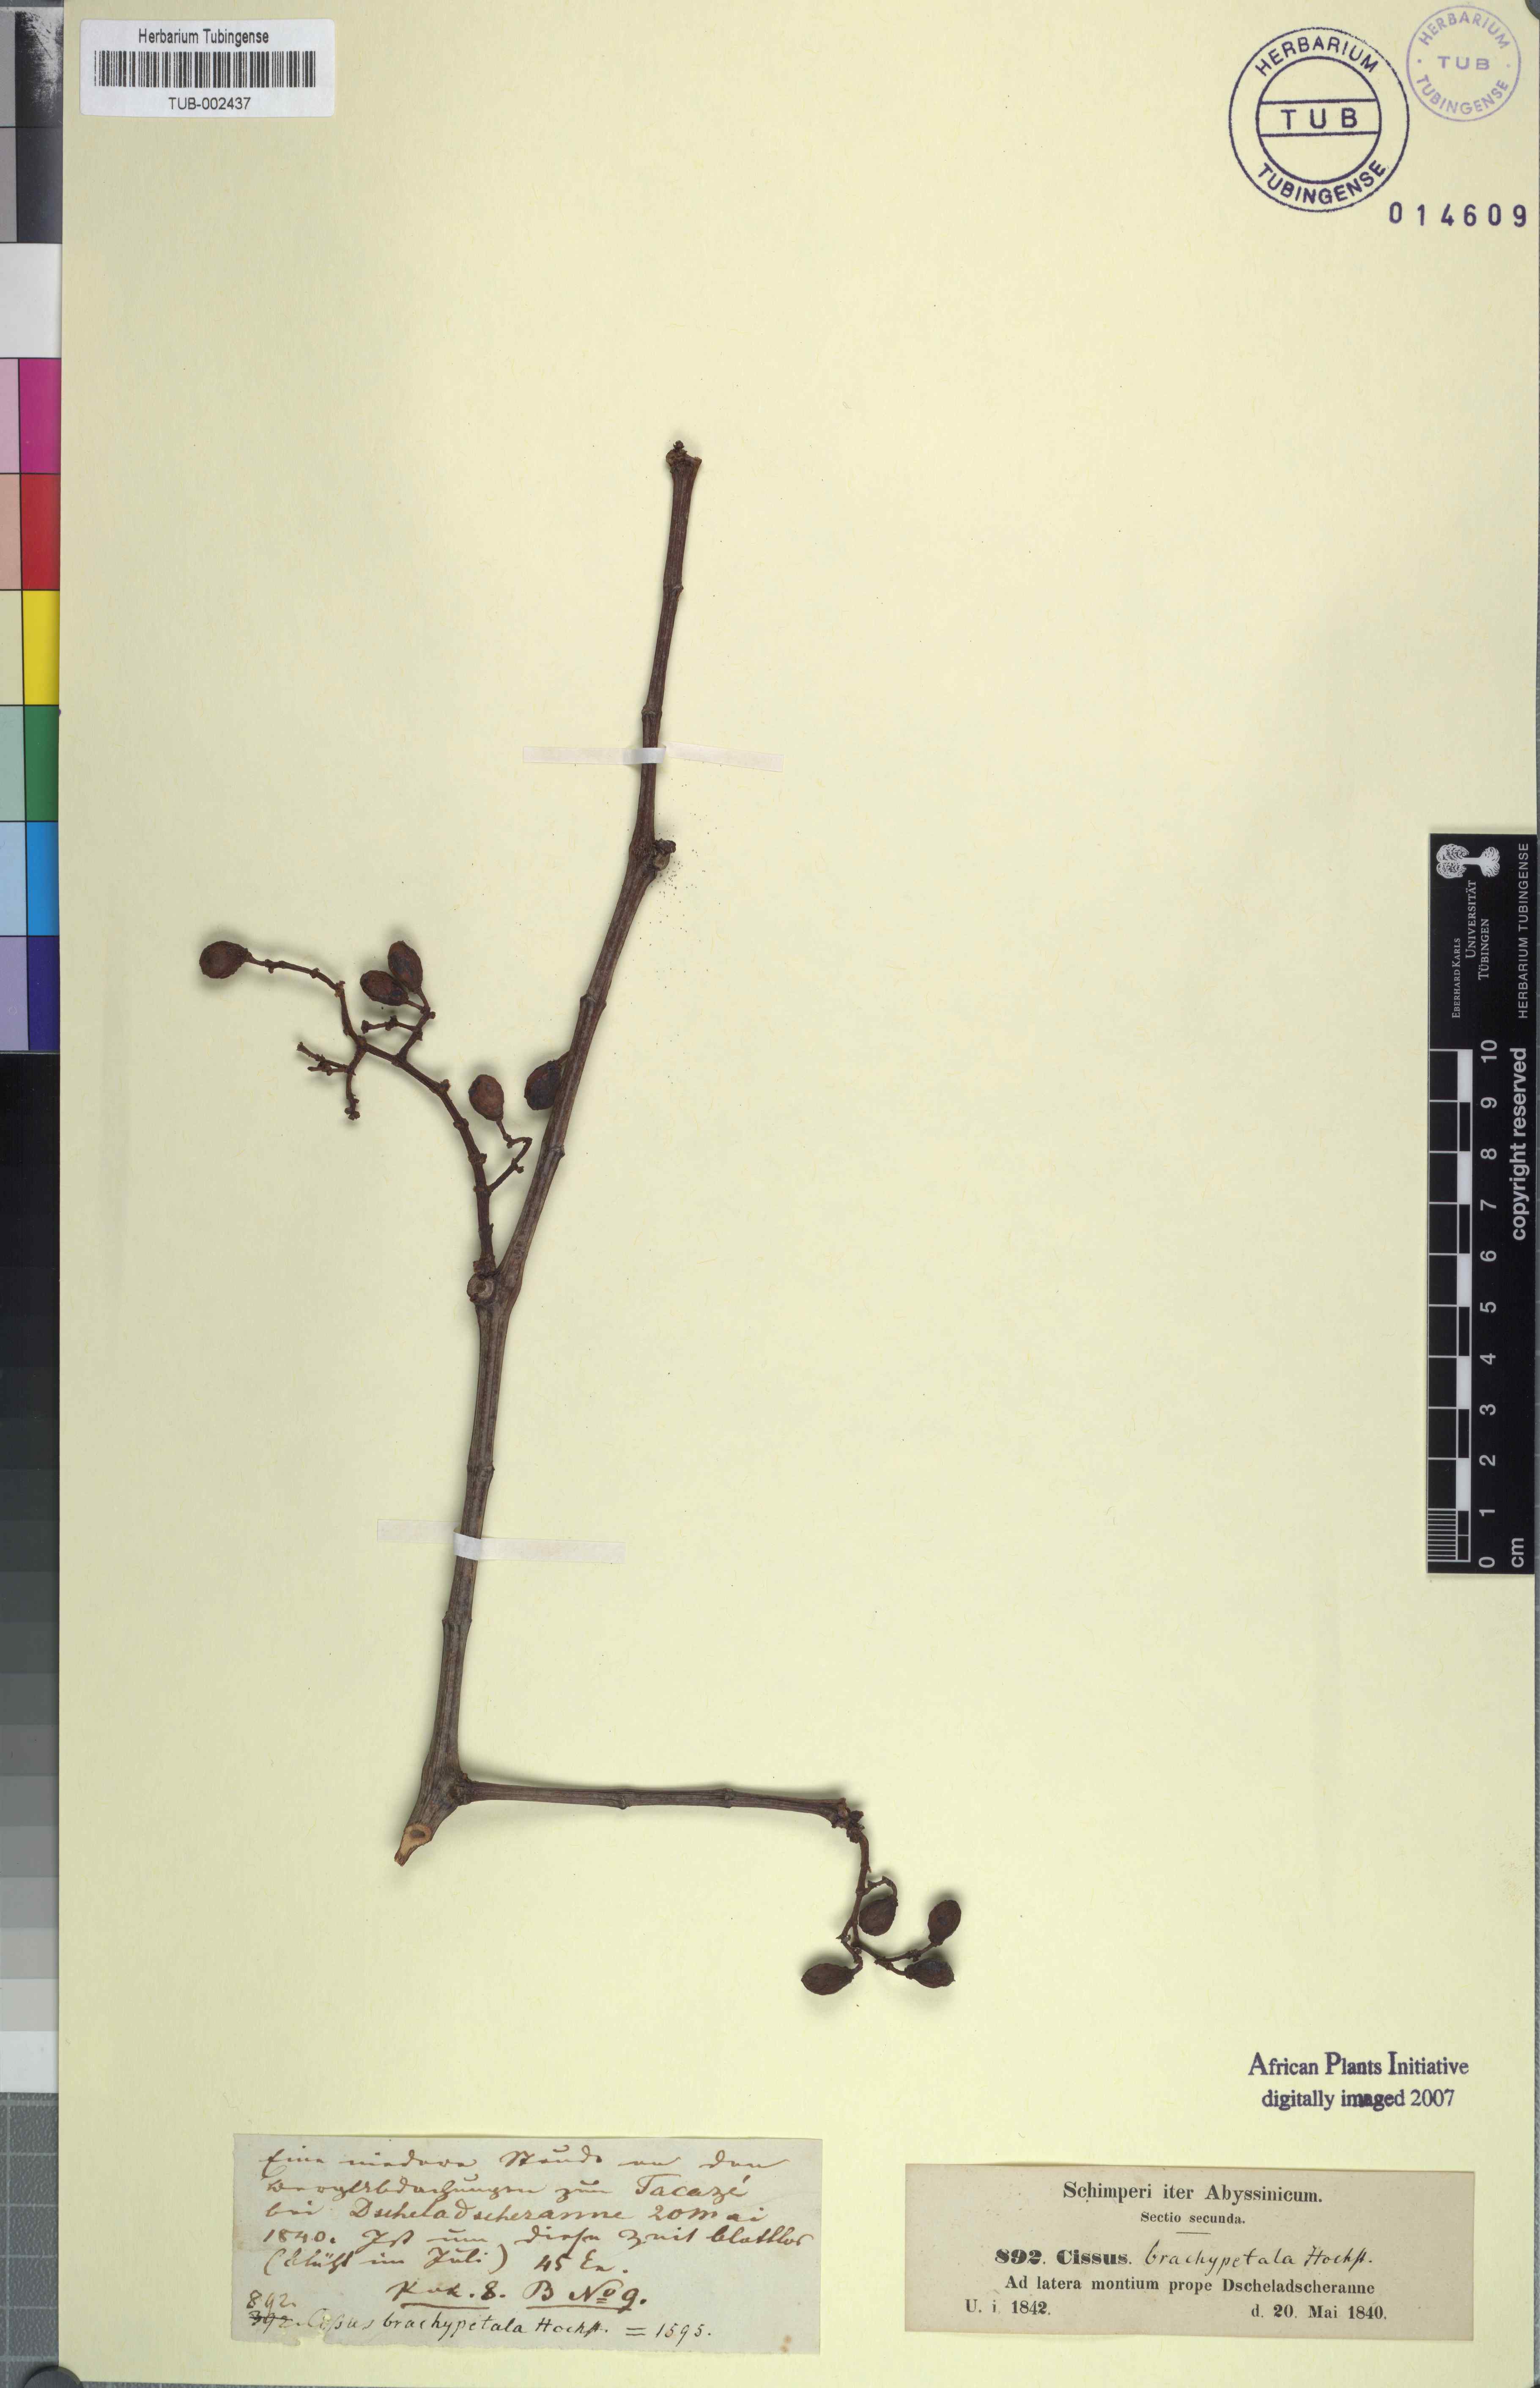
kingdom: Plantae
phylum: Tracheophyta
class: Magnoliopsida
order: Vitales
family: Vitaceae
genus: Cissus
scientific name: Cissus
